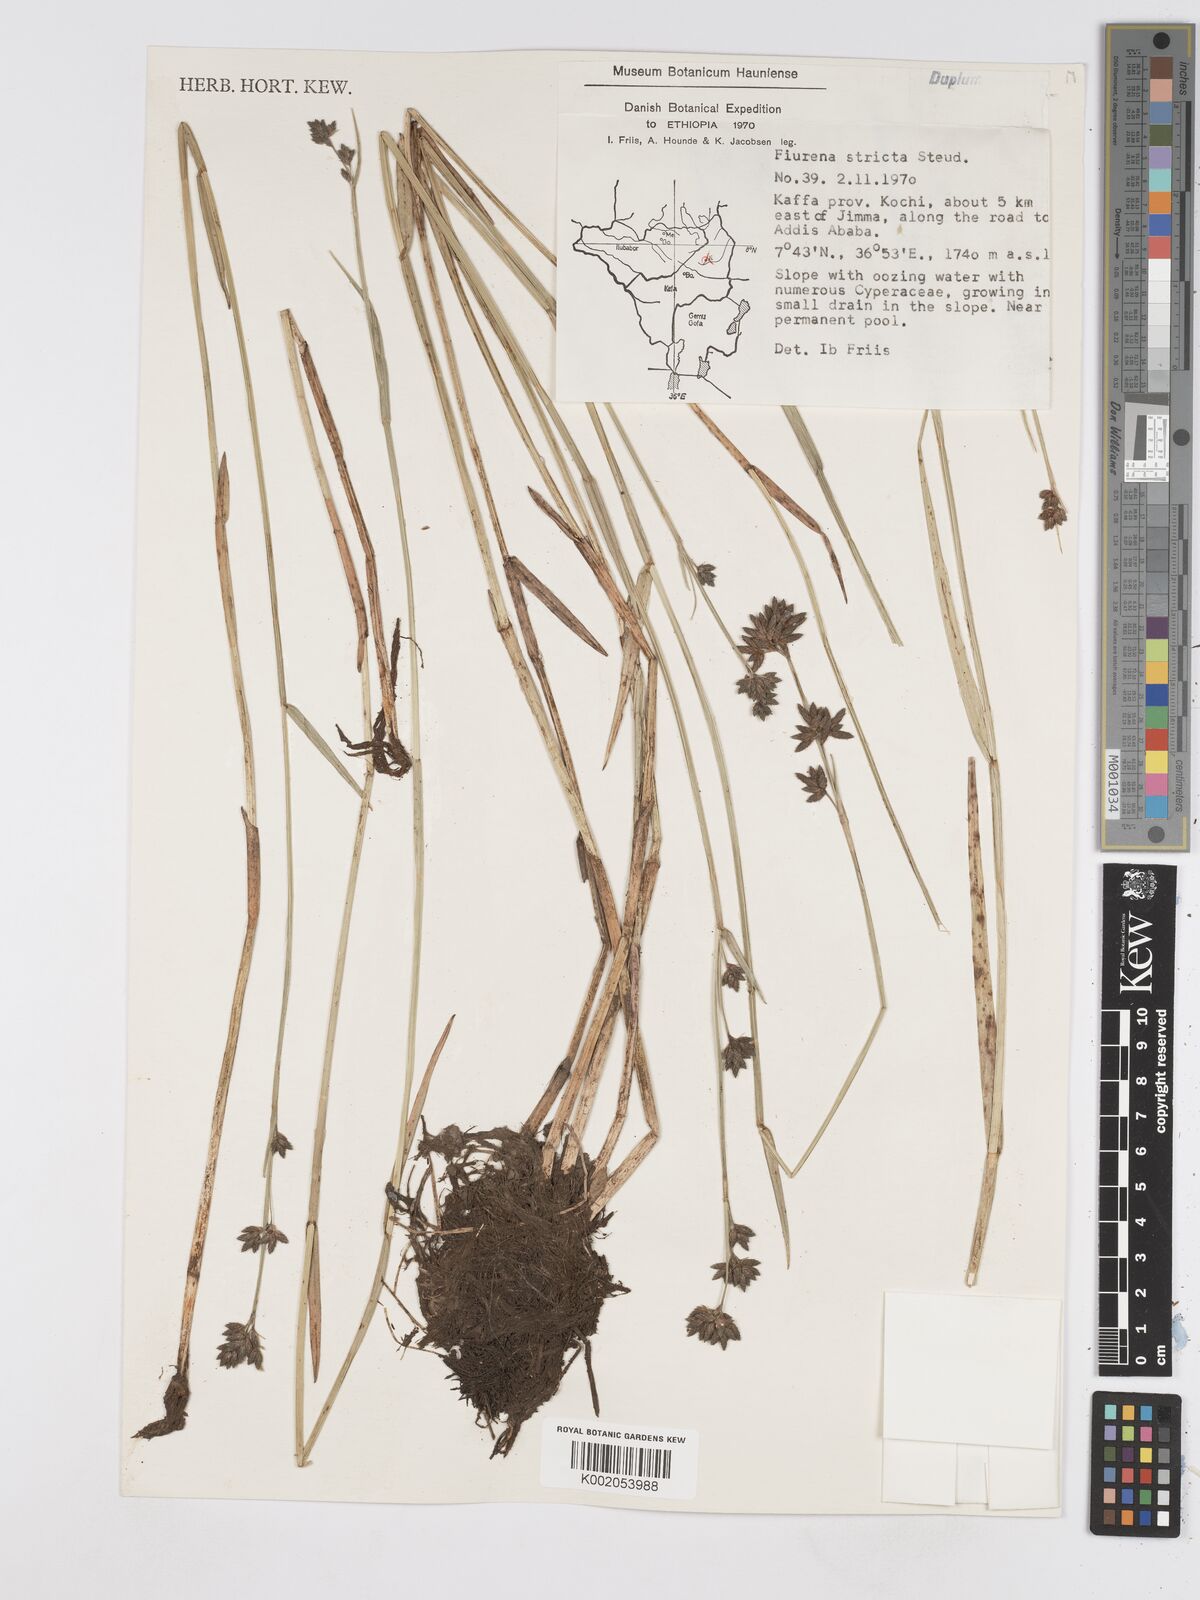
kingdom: Plantae
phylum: Tracheophyta
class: Liliopsida
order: Poales
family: Cyperaceae
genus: Fuirena
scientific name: Fuirena stricta
